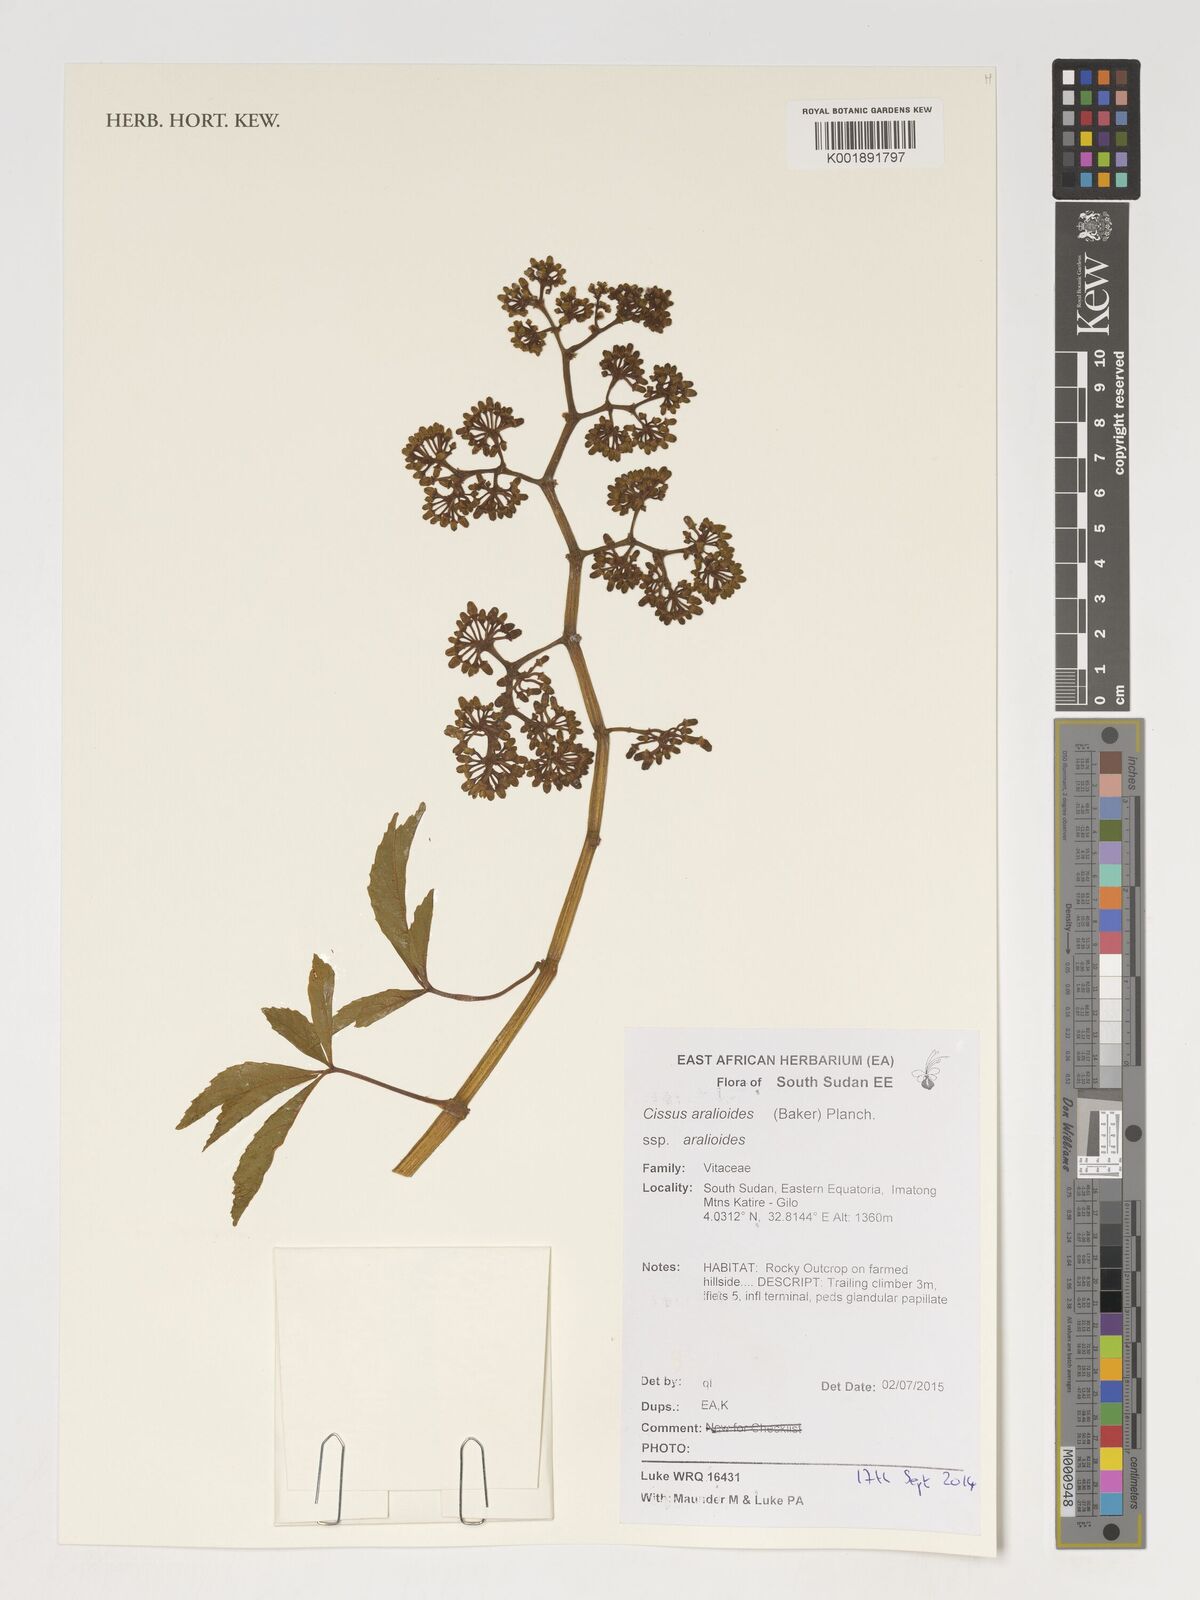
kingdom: Plantae
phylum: Tracheophyta
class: Magnoliopsida
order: Vitales
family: Vitaceae
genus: Cissus
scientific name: Cissus aralioides
